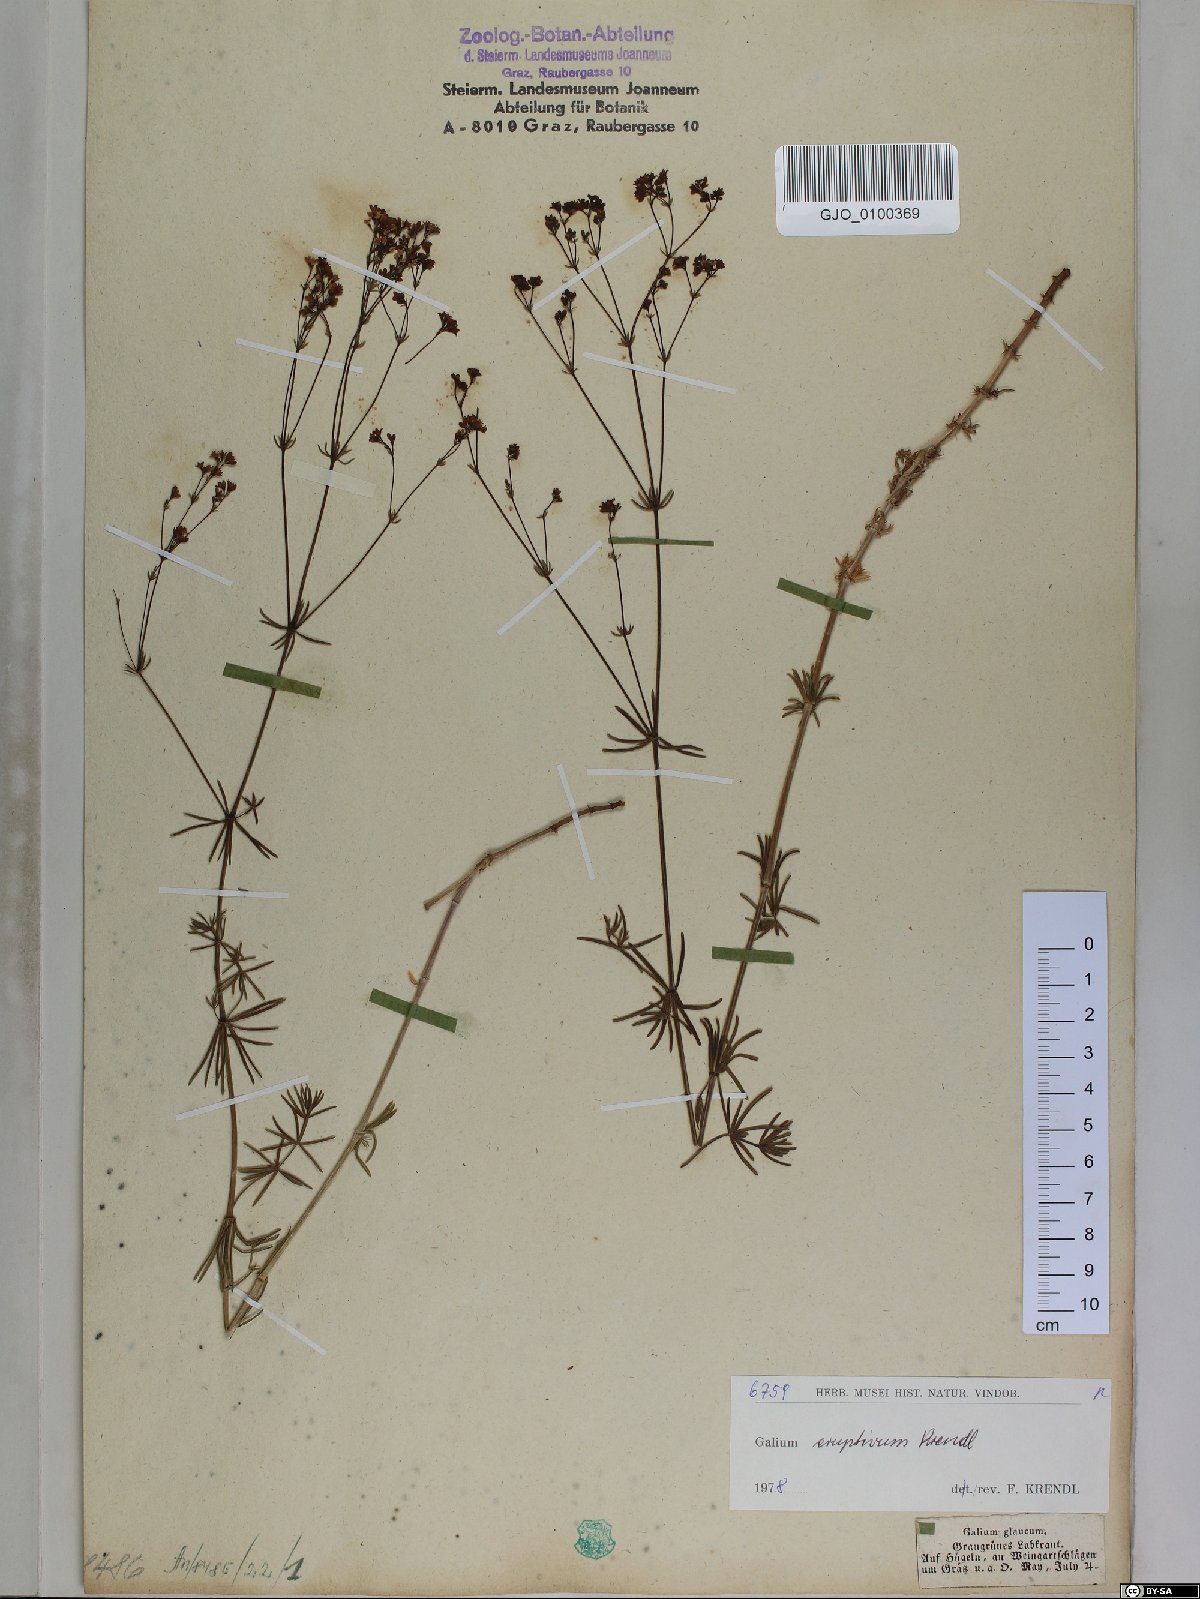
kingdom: Plantae
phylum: Tracheophyta
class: Magnoliopsida
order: Gentianales
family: Rubiaceae
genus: Galium
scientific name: Galium eruptivum
